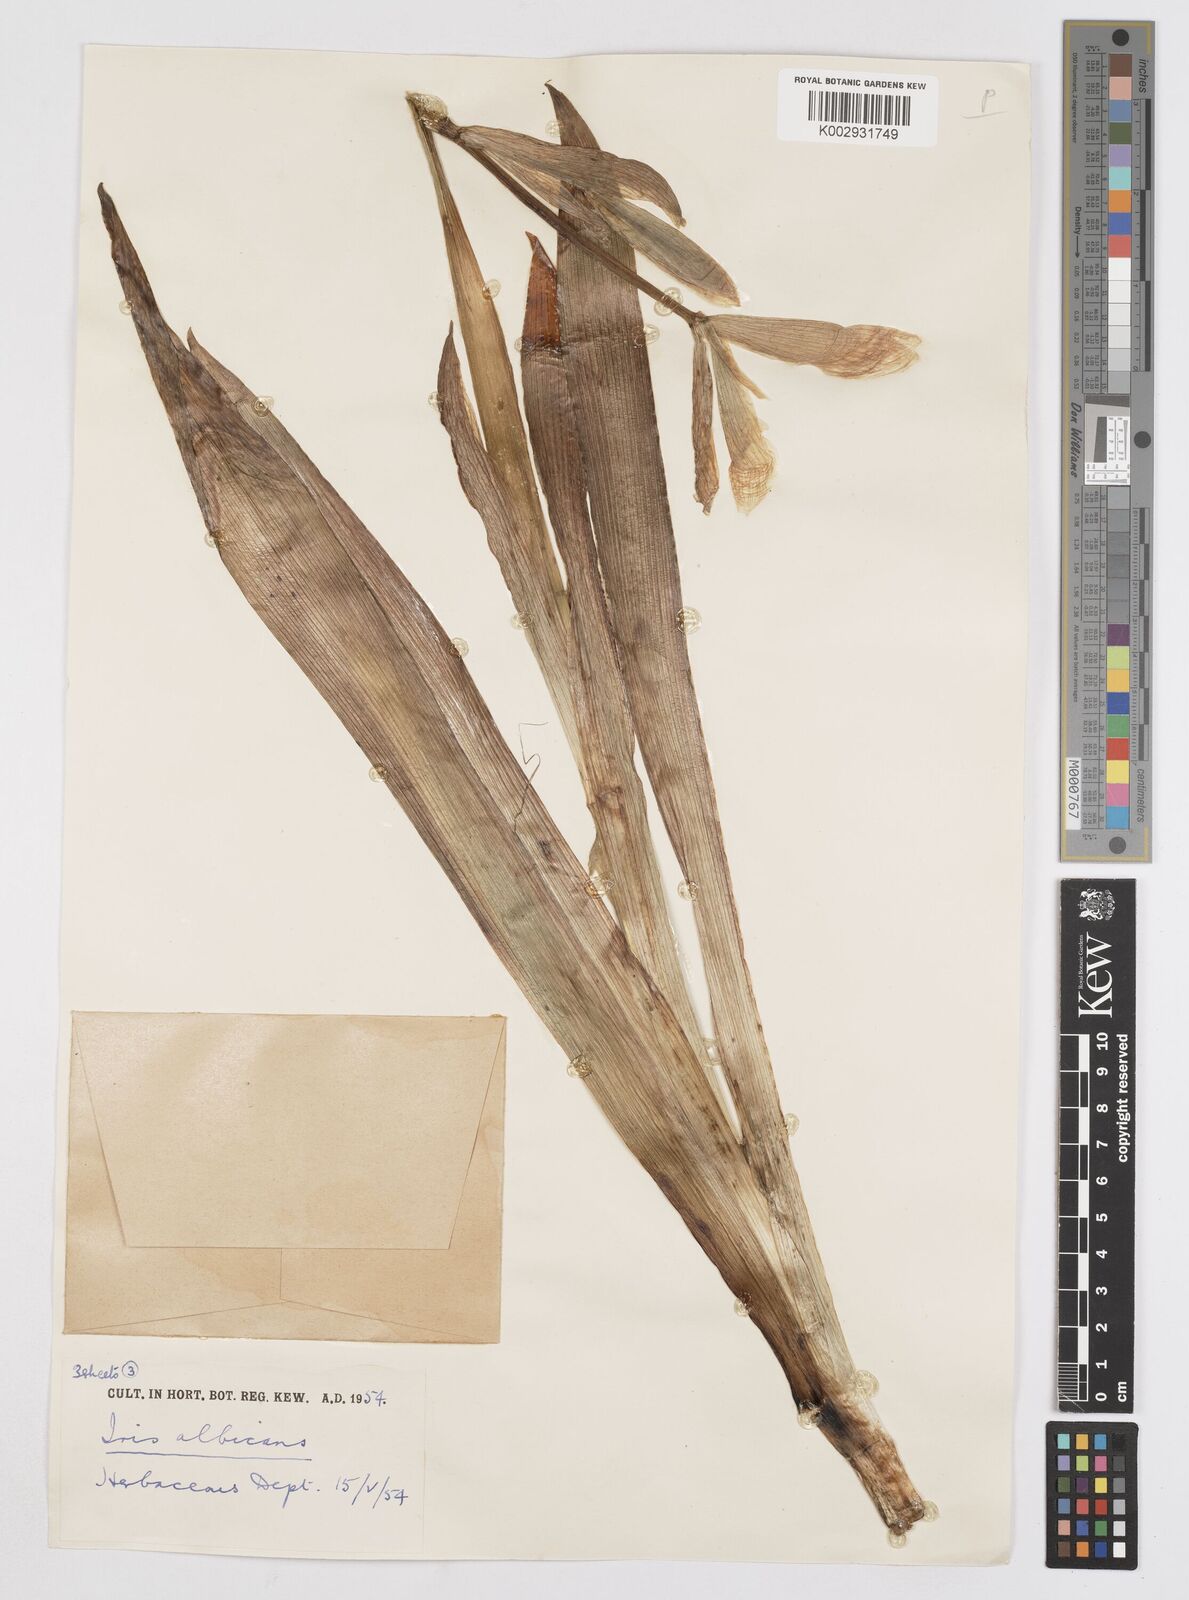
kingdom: Plantae
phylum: Tracheophyta
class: Liliopsida
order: Asparagales
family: Iridaceae
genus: Iris
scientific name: Iris florentina
